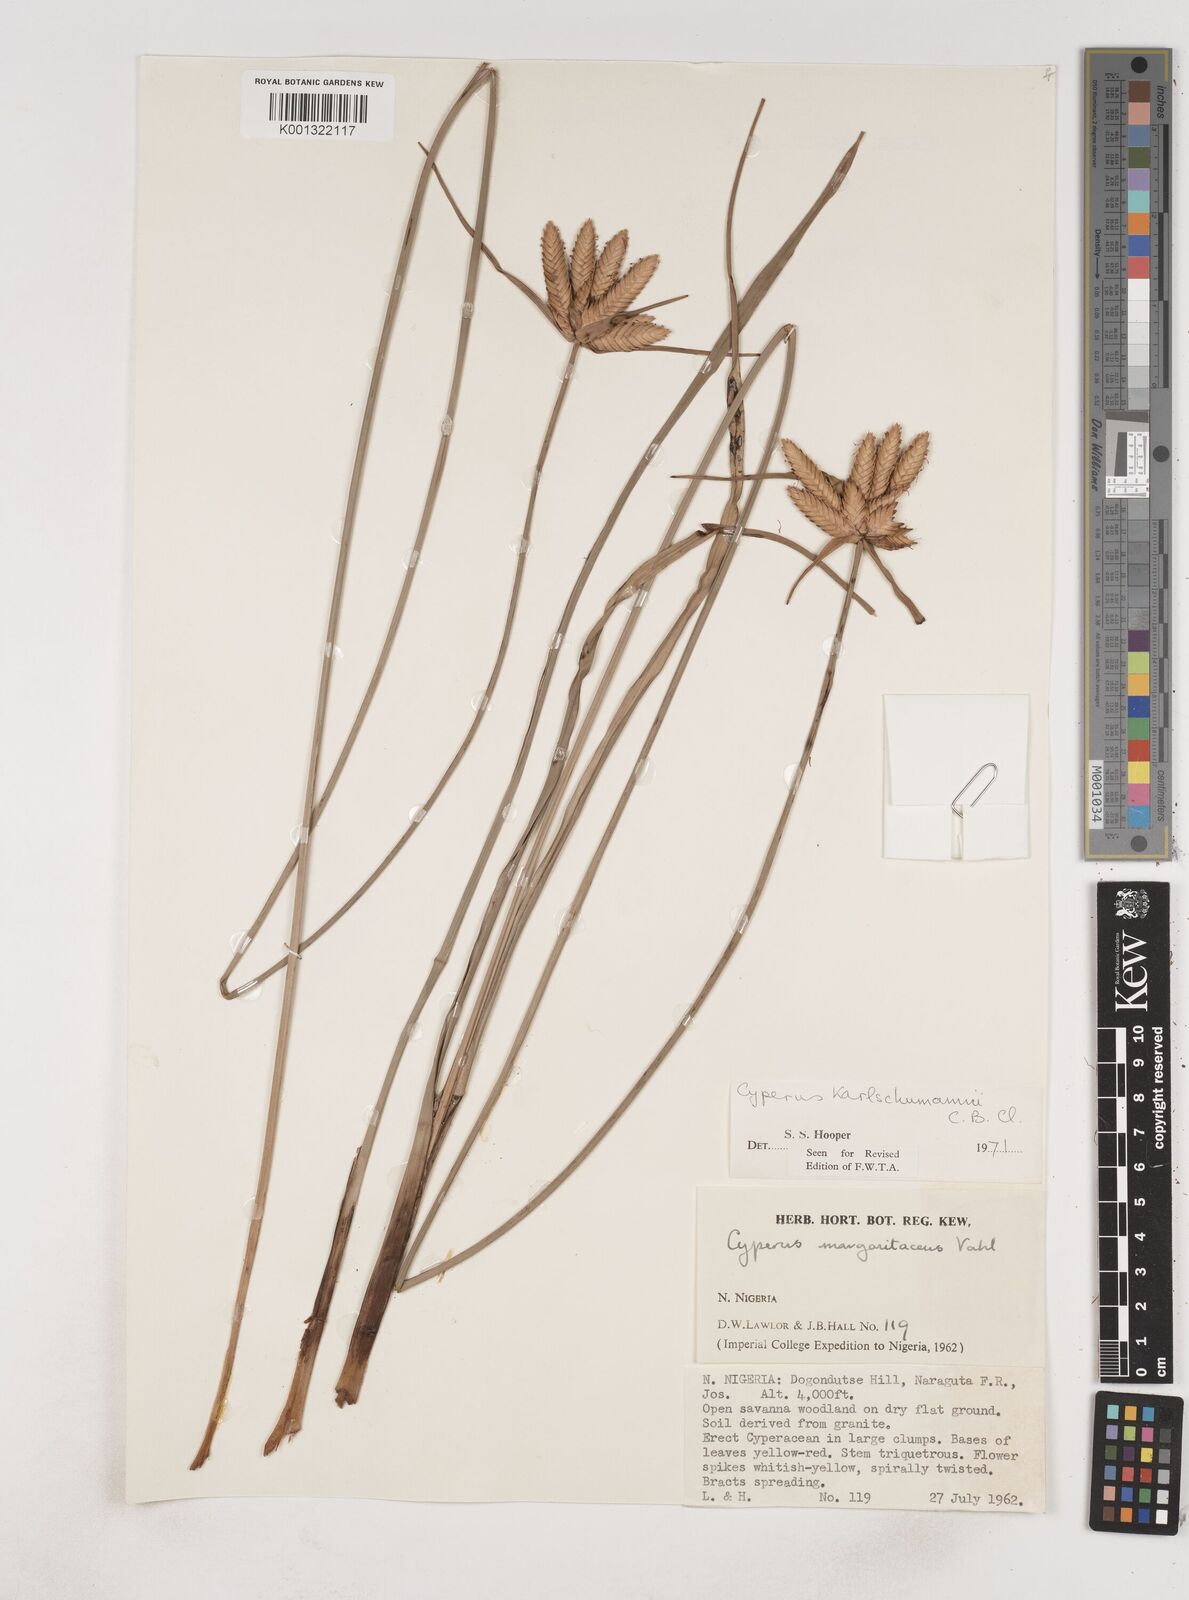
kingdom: Plantae
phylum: Tracheophyta
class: Liliopsida
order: Poales
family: Cyperaceae
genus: Cyperus
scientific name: Cyperus karlschumannii
